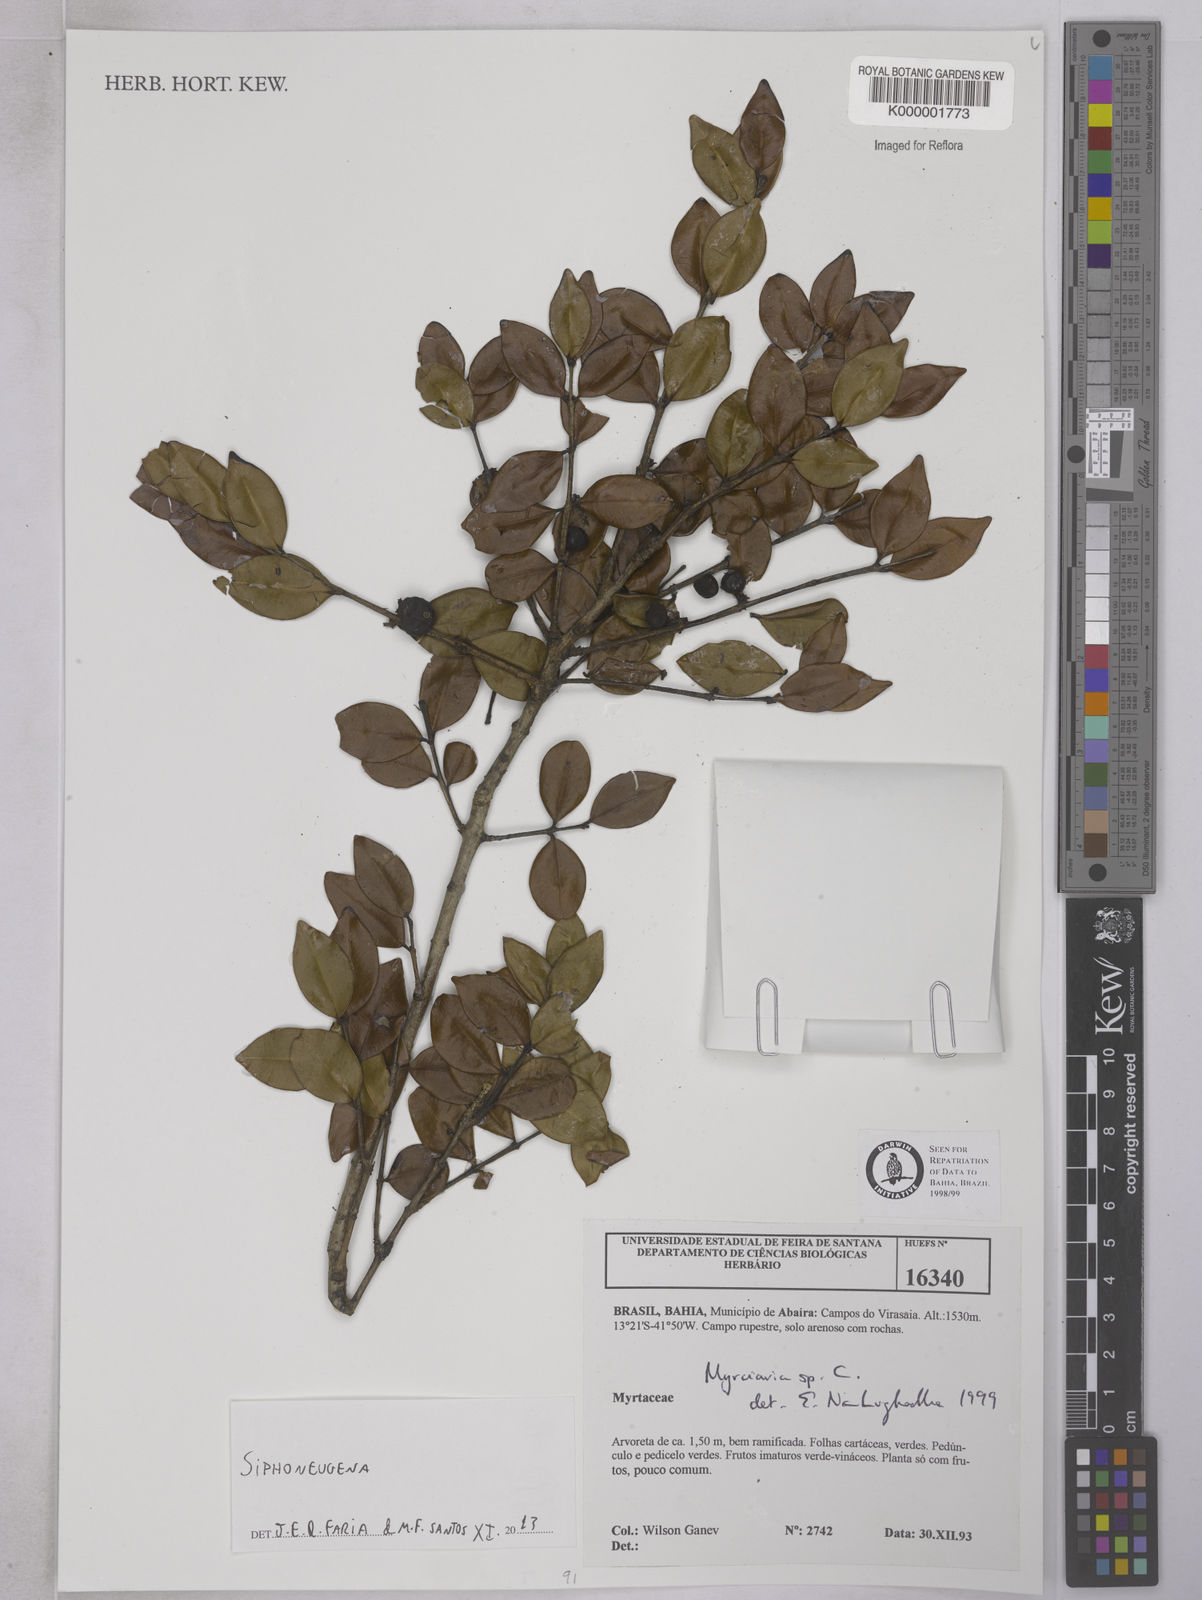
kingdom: Plantae
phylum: Tracheophyta
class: Magnoliopsida
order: Myrtales
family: Myrtaceae
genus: Siphoneugena
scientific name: Siphoneugena dussii
